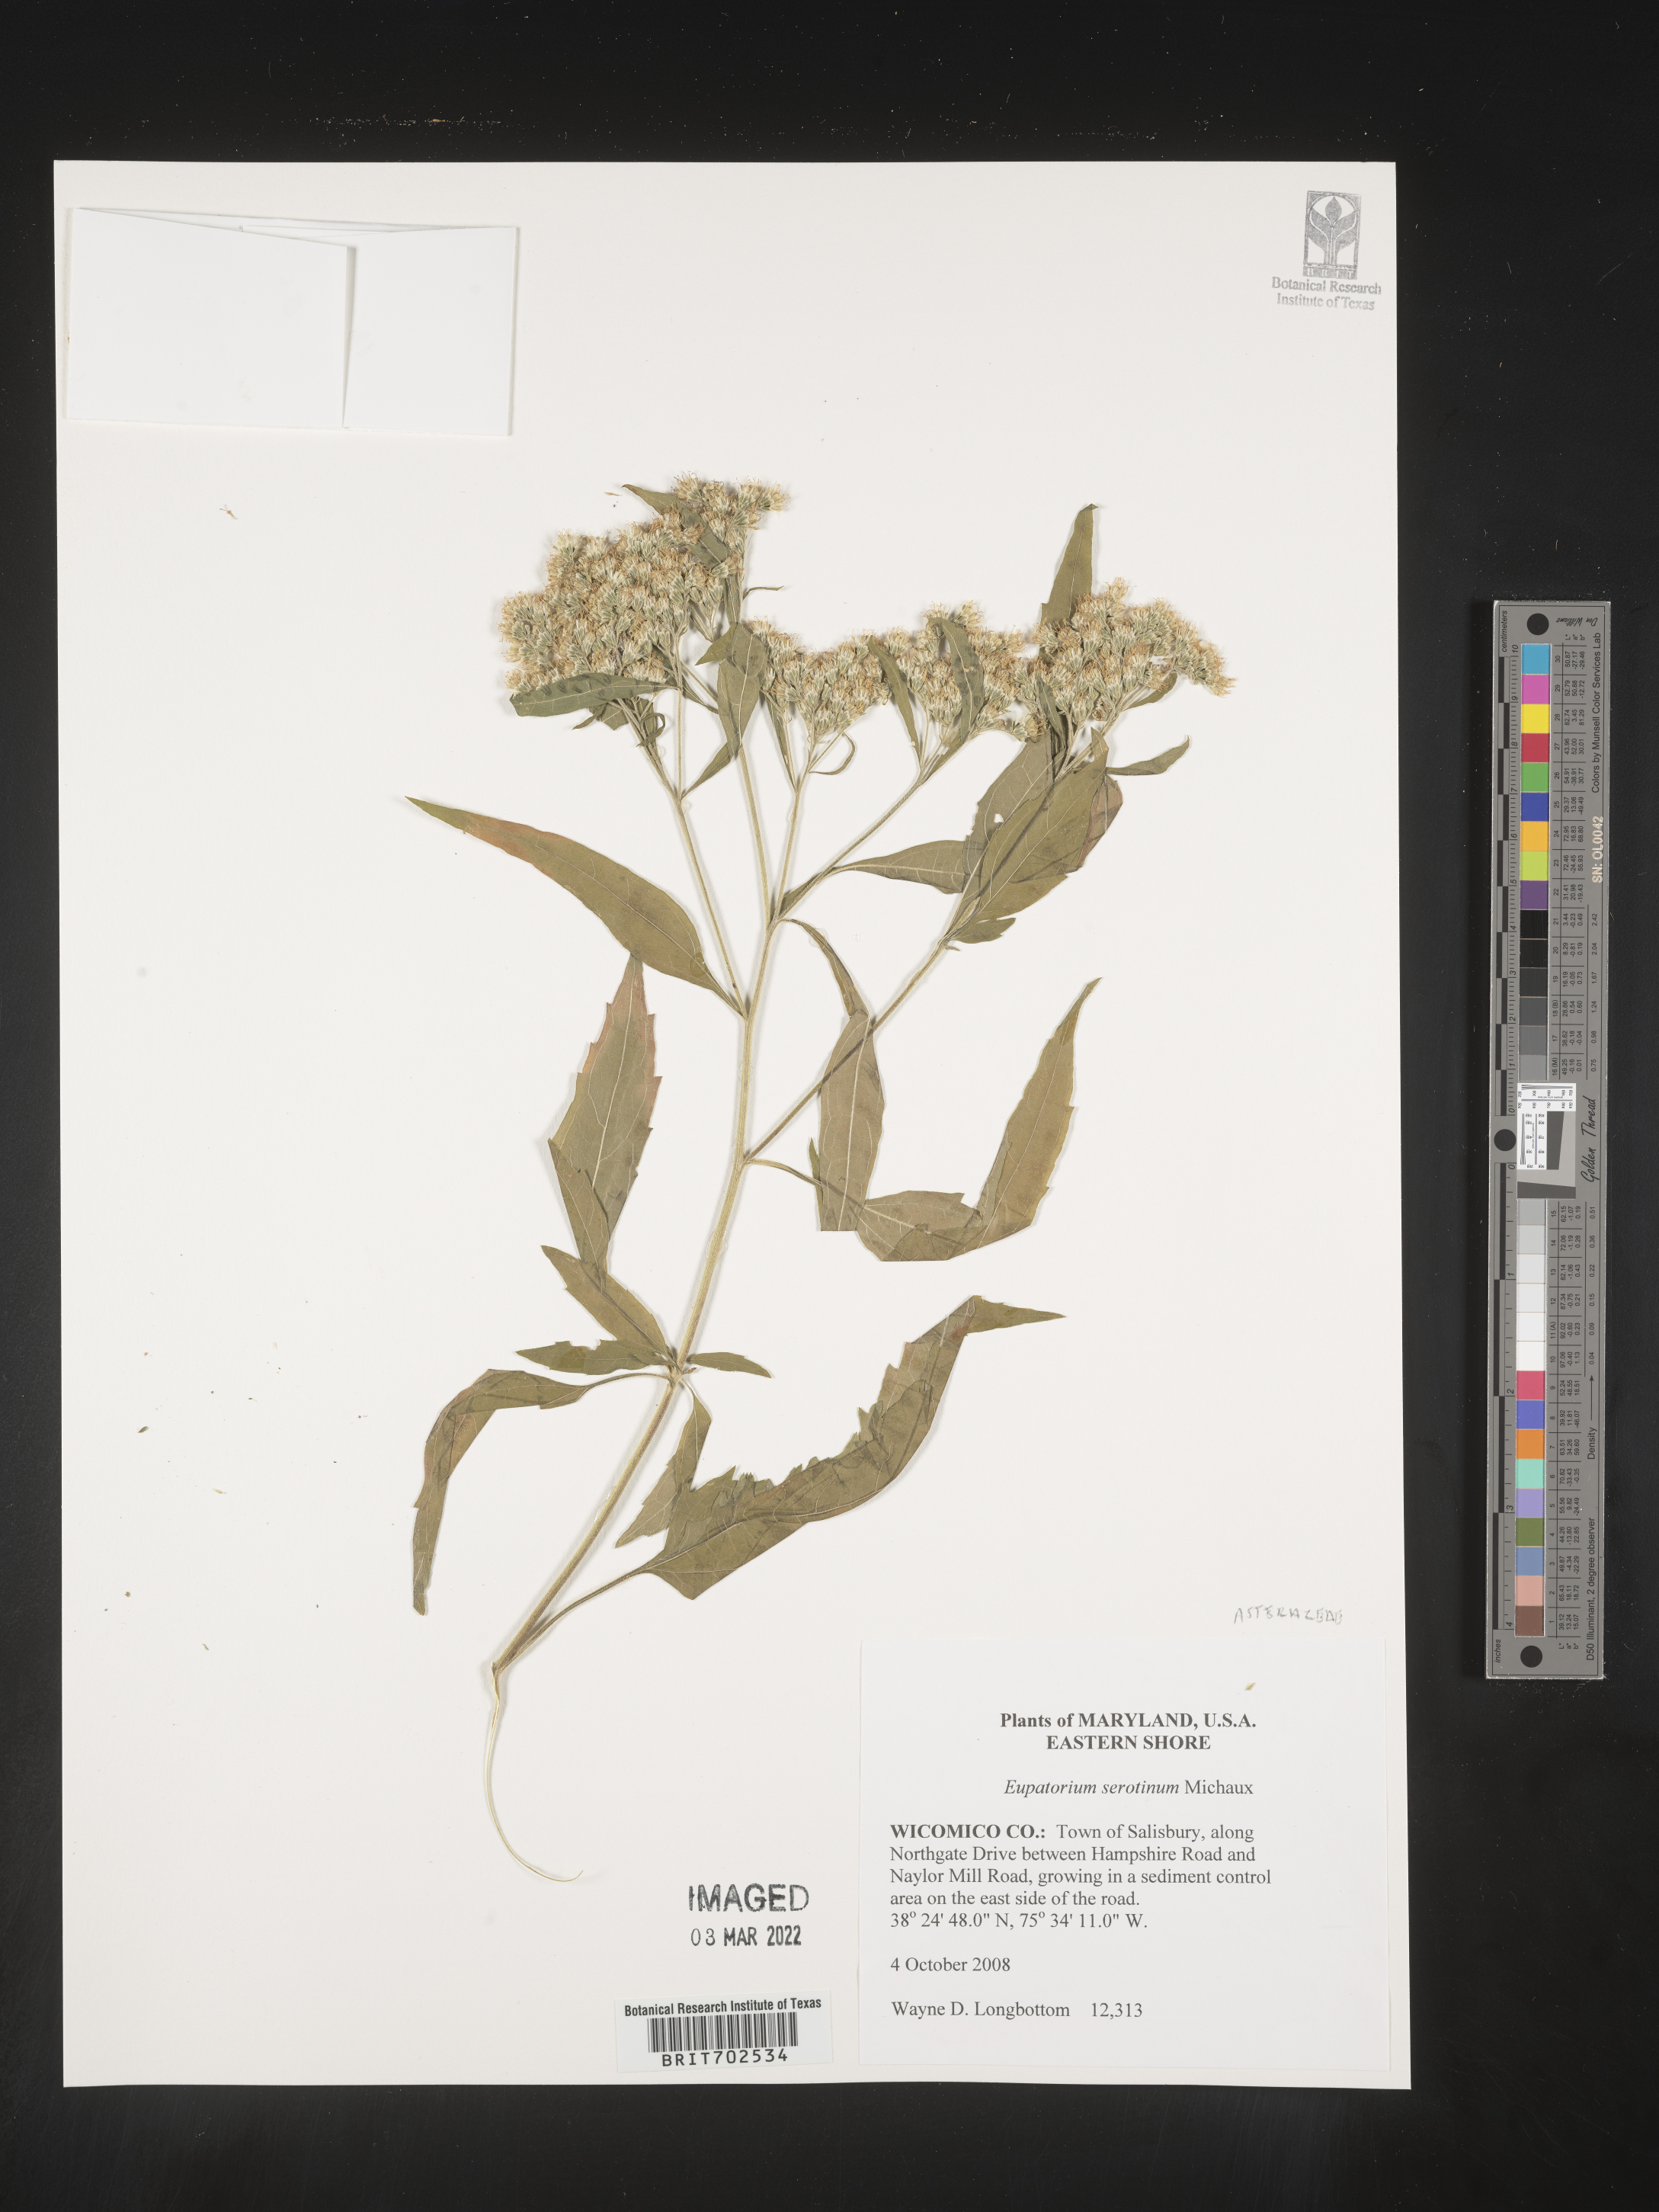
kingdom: Plantae
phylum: Tracheophyta
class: Magnoliopsida
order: Asterales
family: Asteraceae
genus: Eupatorium
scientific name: Eupatorium serotinum
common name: Late boneset
